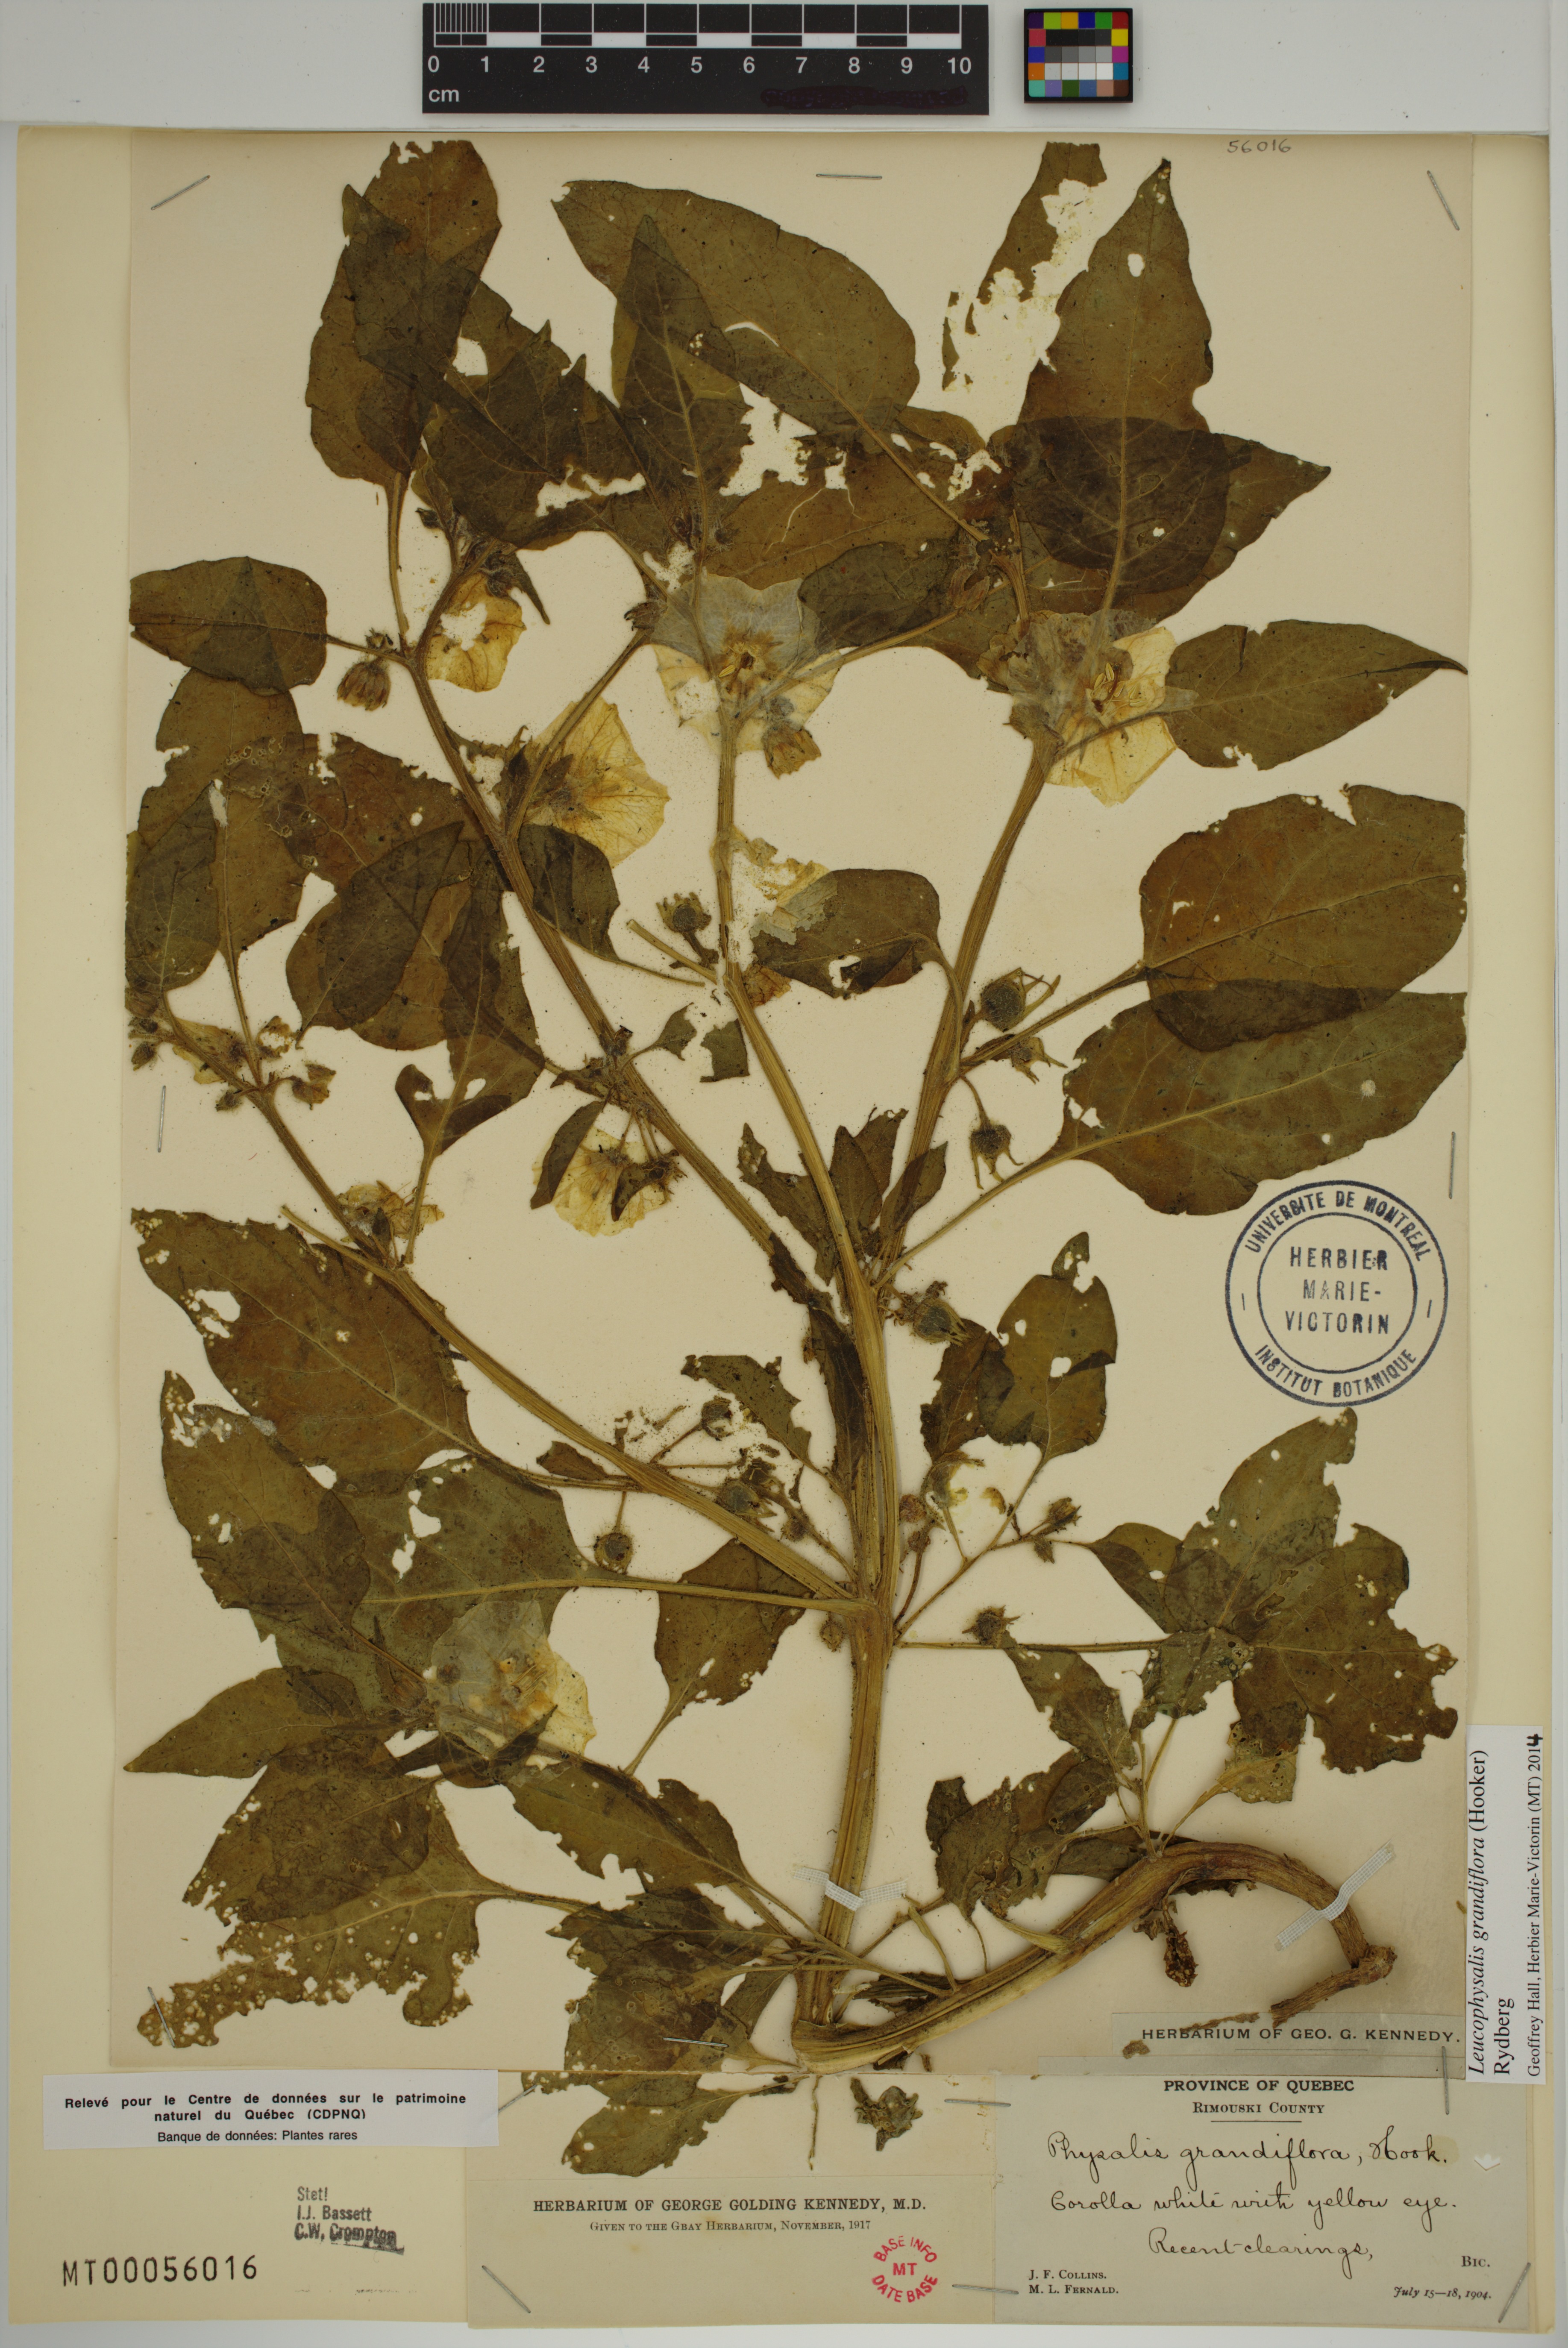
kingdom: Plantae
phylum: Tracheophyta
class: Magnoliopsida
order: Solanales
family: Solanaceae
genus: Leucophysalis
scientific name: Leucophysalis grandiflora
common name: Large false ground-cherry
